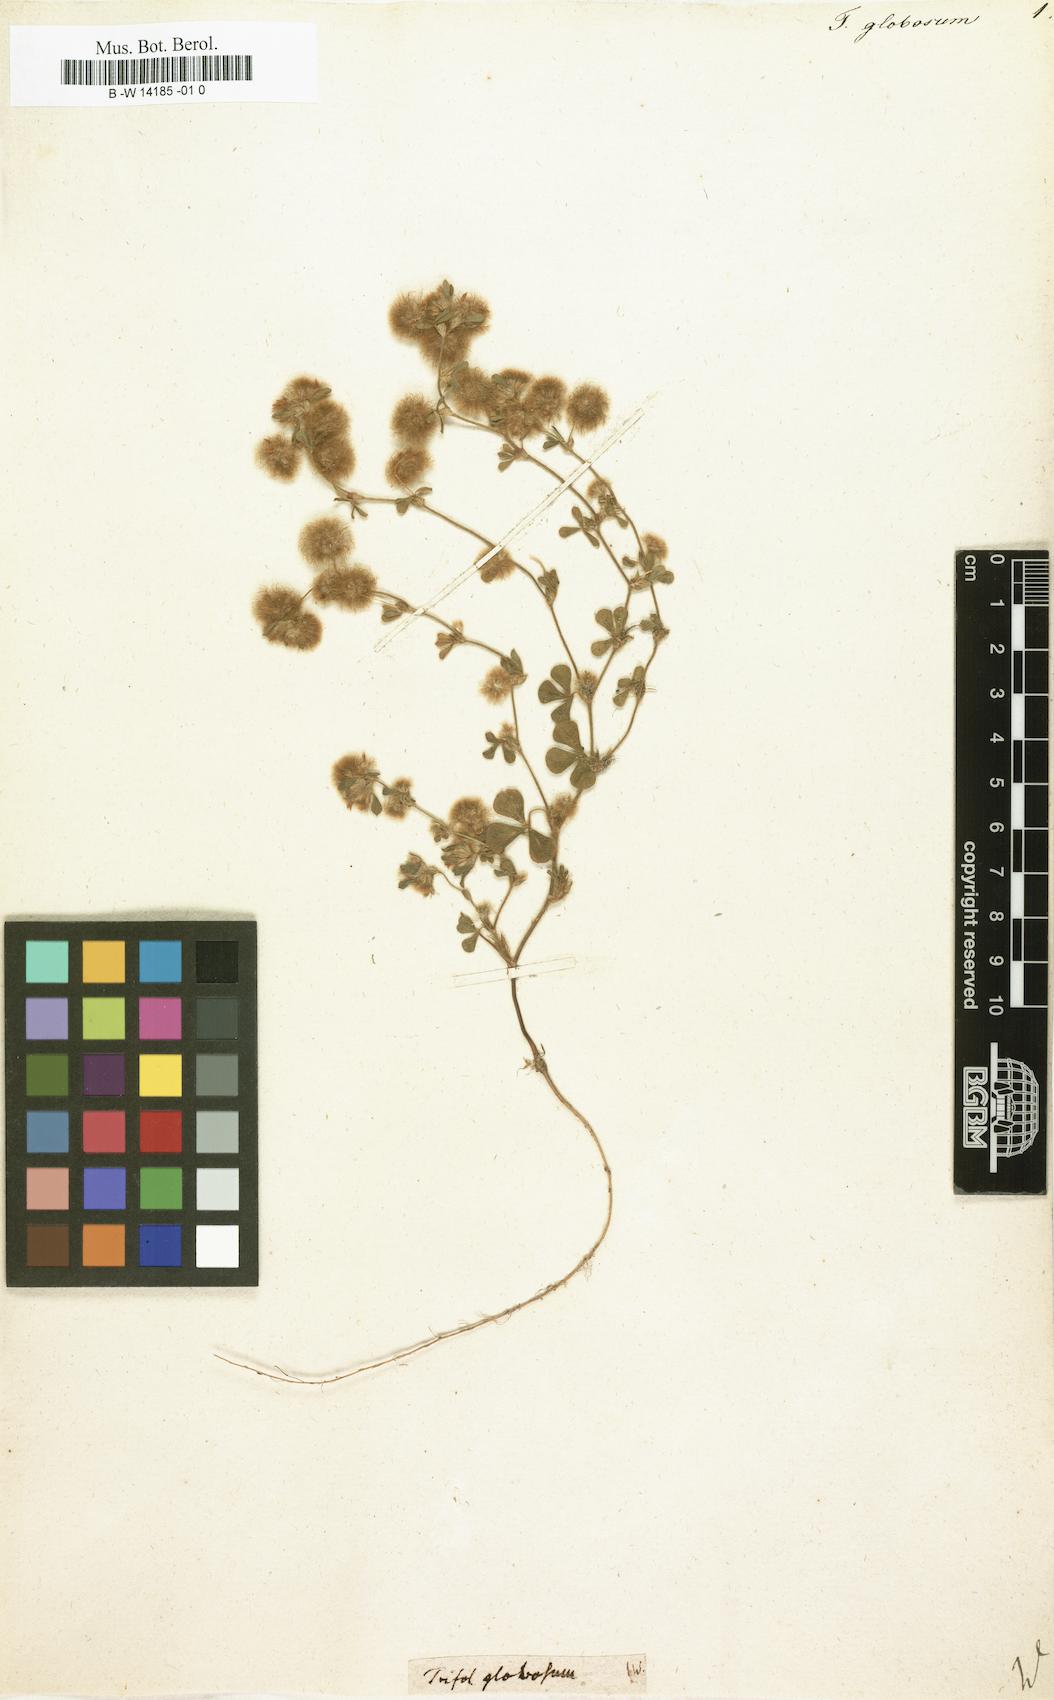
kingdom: Plantae
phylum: Tracheophyta
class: Magnoliopsida
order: Fabales
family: Fabaceae
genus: Trifolium
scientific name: Trifolium globosum
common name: Round-head clover
